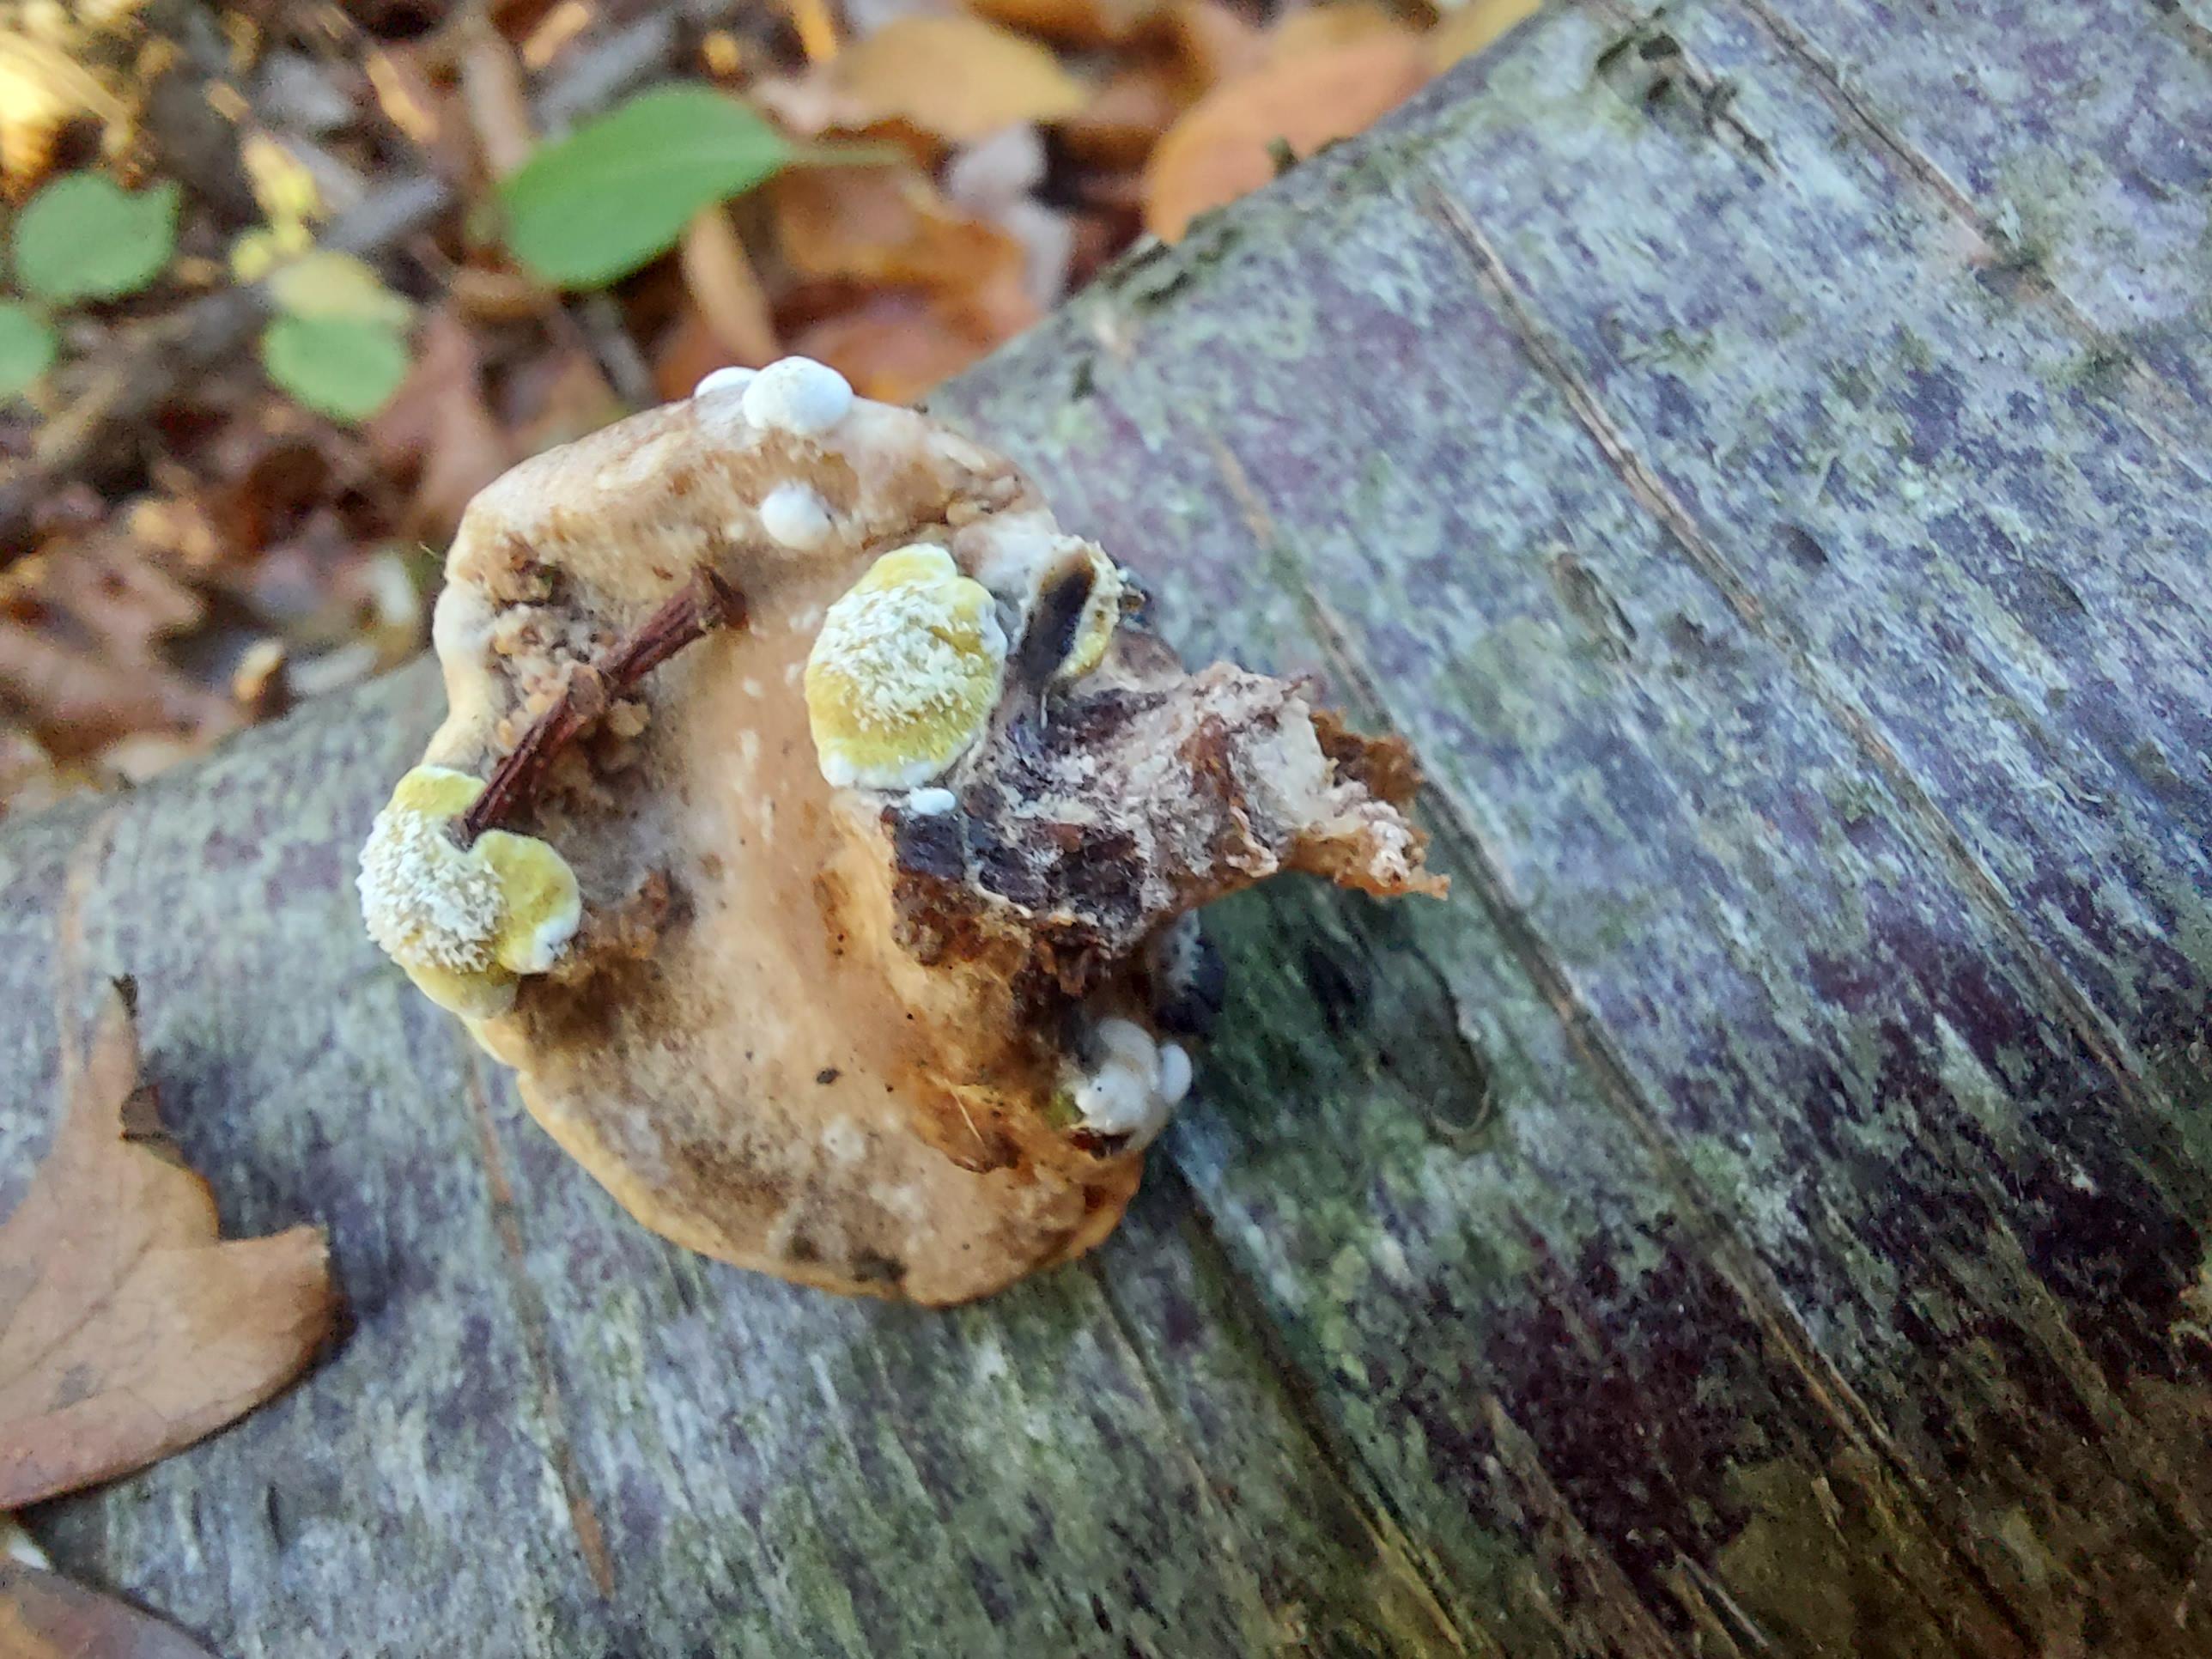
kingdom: Fungi
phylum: Ascomycota
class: Sordariomycetes
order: Hypocreales
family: Hypocreaceae
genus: Trichoderma
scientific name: Trichoderma pulvinatum
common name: snyltende kødkerne
